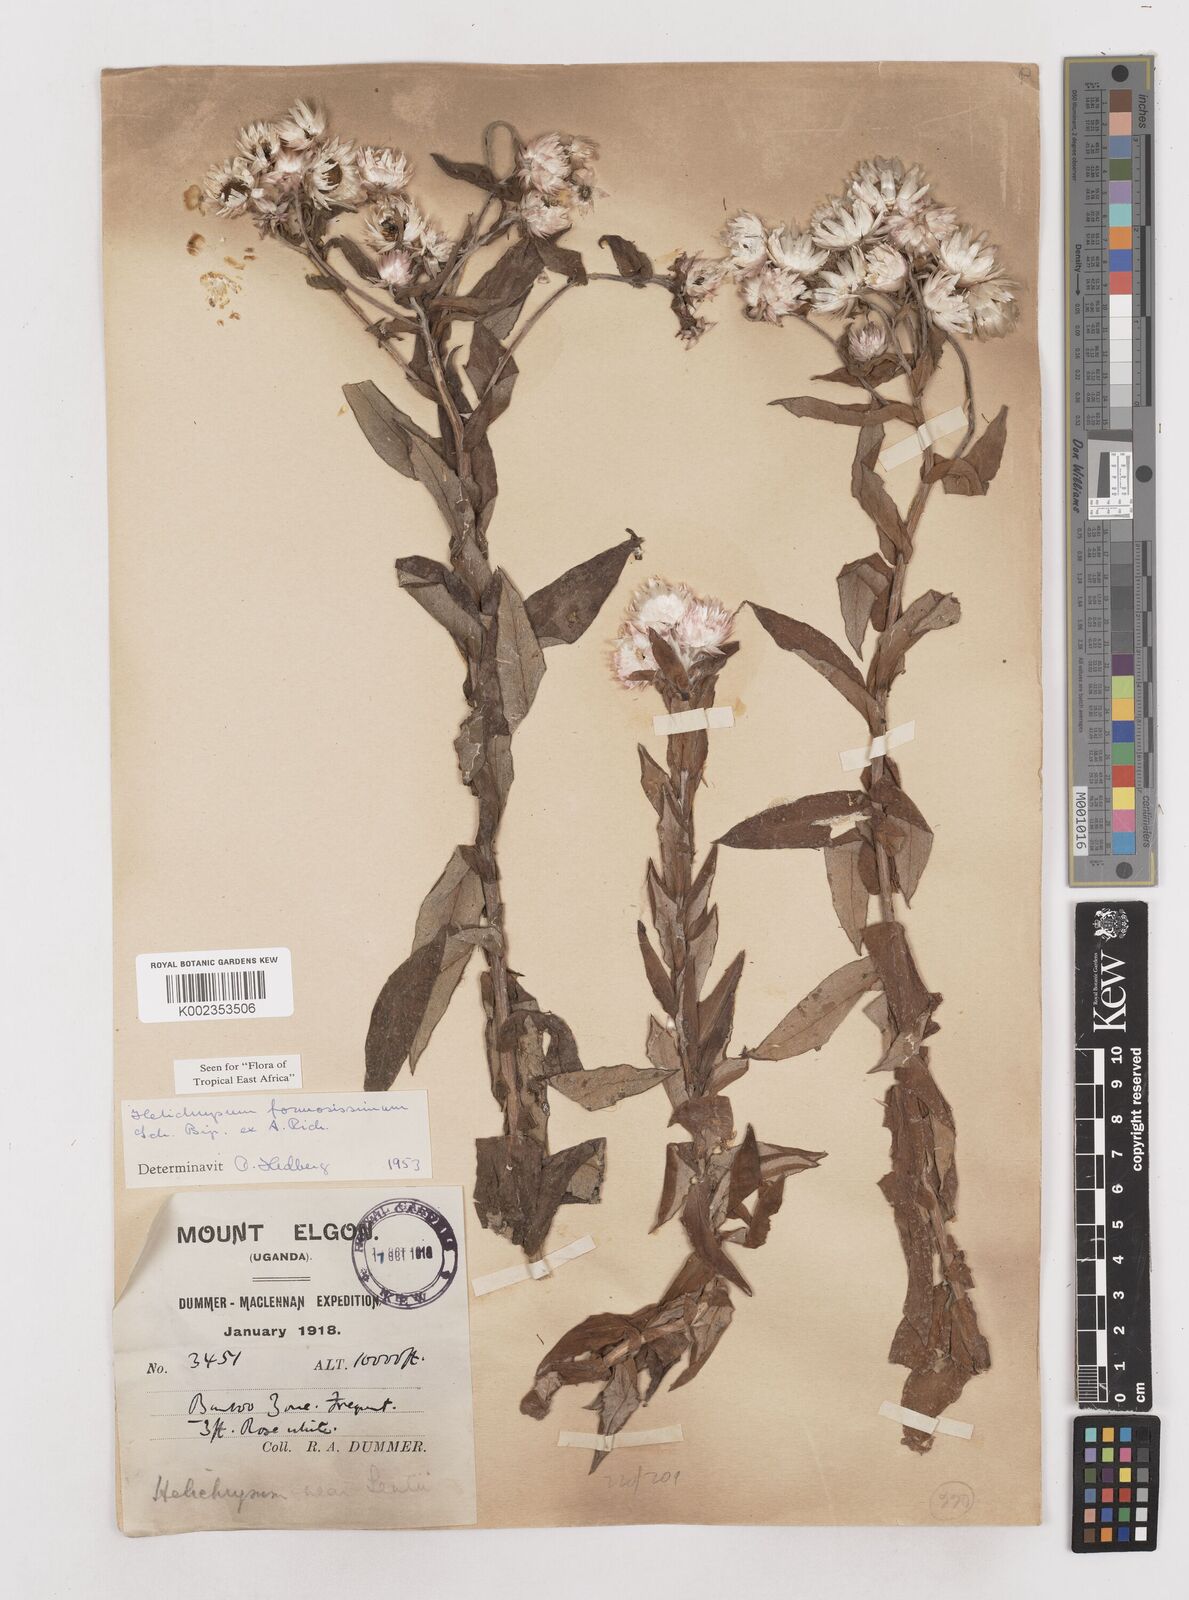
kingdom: Plantae
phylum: Tracheophyta
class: Magnoliopsida
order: Asterales
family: Asteraceae
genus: Helichrysum
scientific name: Helichrysum formosissimum
